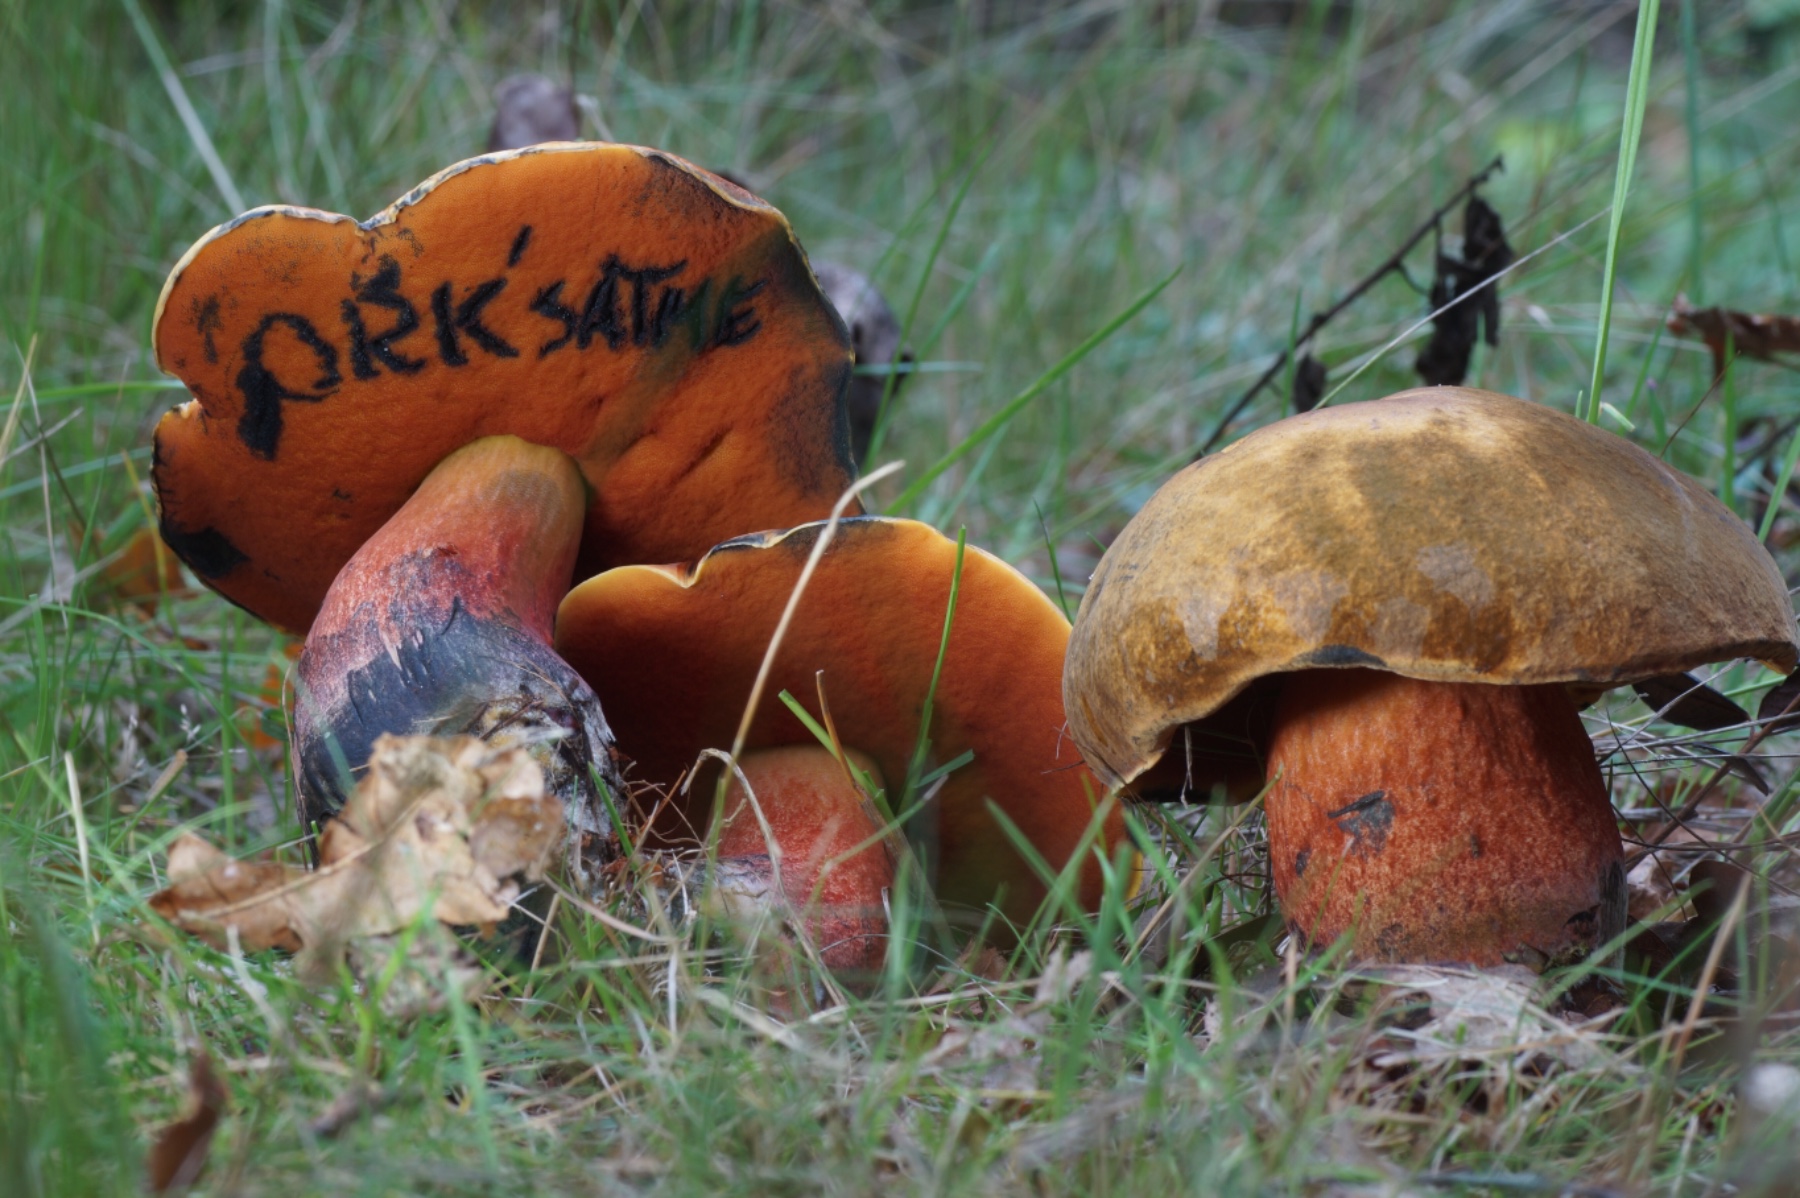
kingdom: Fungi
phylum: Basidiomycota
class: Agaricomycetes
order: Boletales
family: Boletaceae
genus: Neoboletus
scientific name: Neoboletus erythropus
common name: punktstokket indigorørhat
